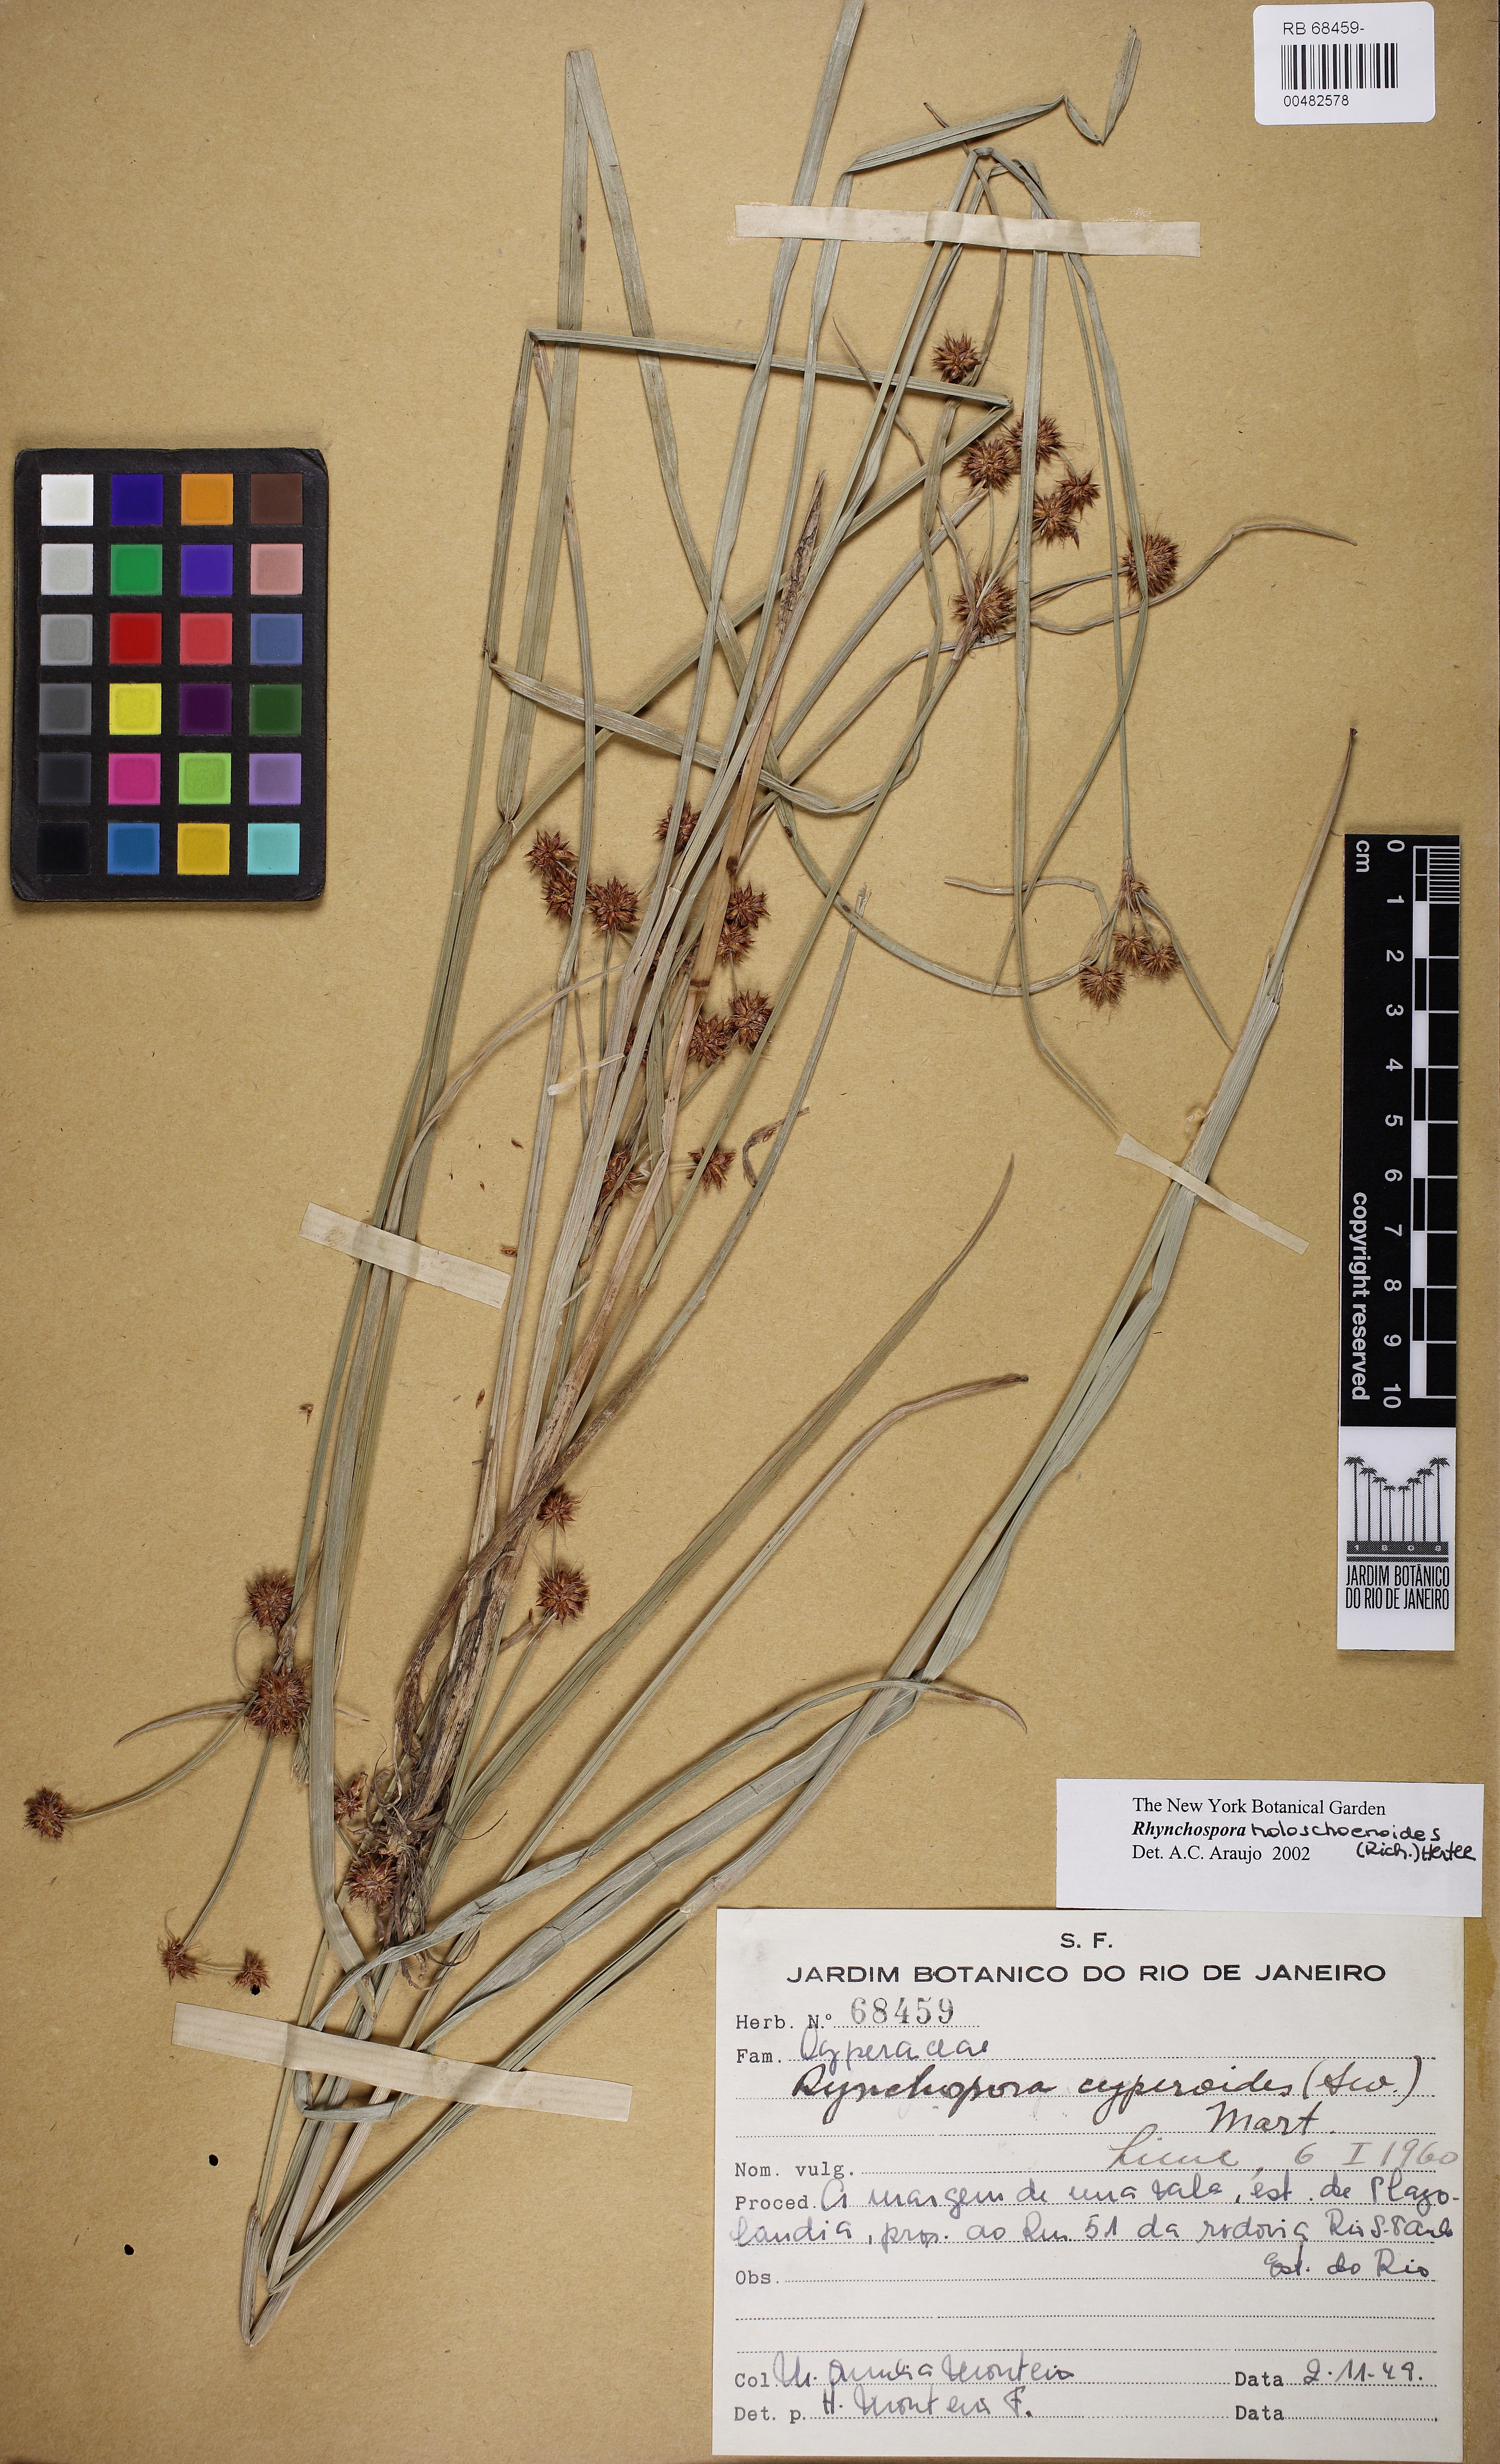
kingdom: Plantae
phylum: Tracheophyta
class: Liliopsida
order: Poales
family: Cyperaceae
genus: Rhynchospora
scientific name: Rhynchospora holoschoenoides
